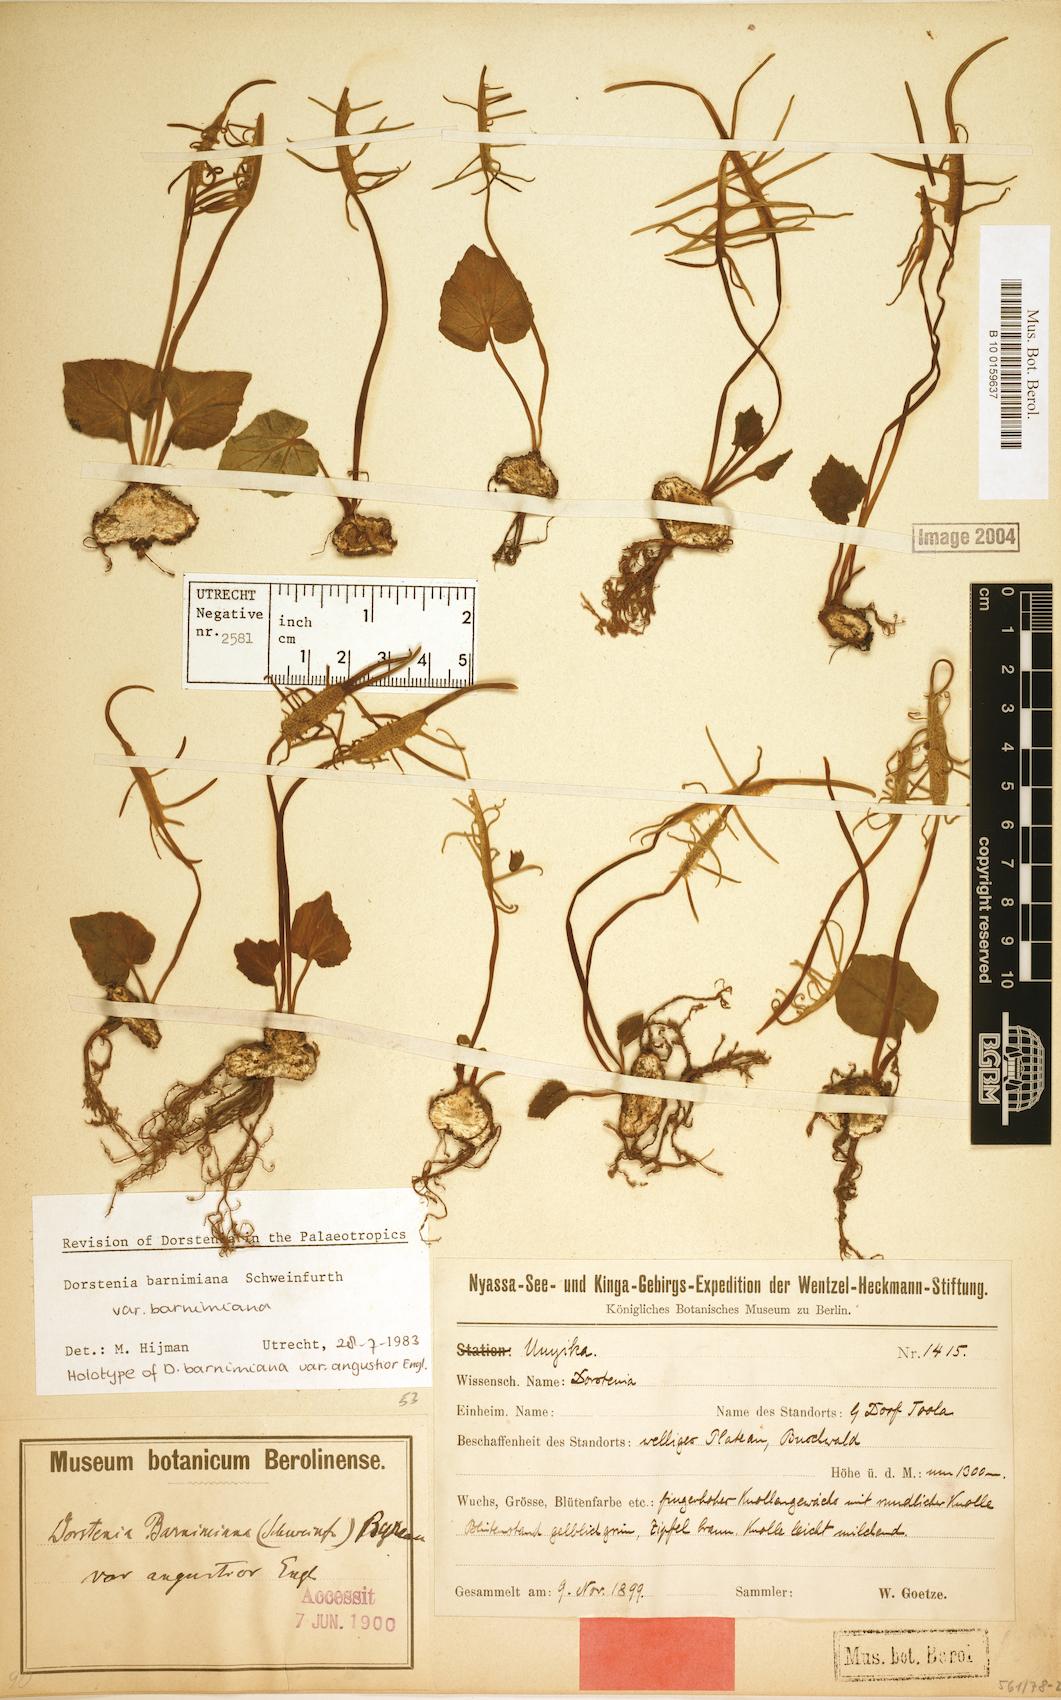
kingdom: Plantae
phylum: Tracheophyta
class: Magnoliopsida
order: Rosales
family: Moraceae
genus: Dorstenia
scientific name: Dorstenia barnimiana
